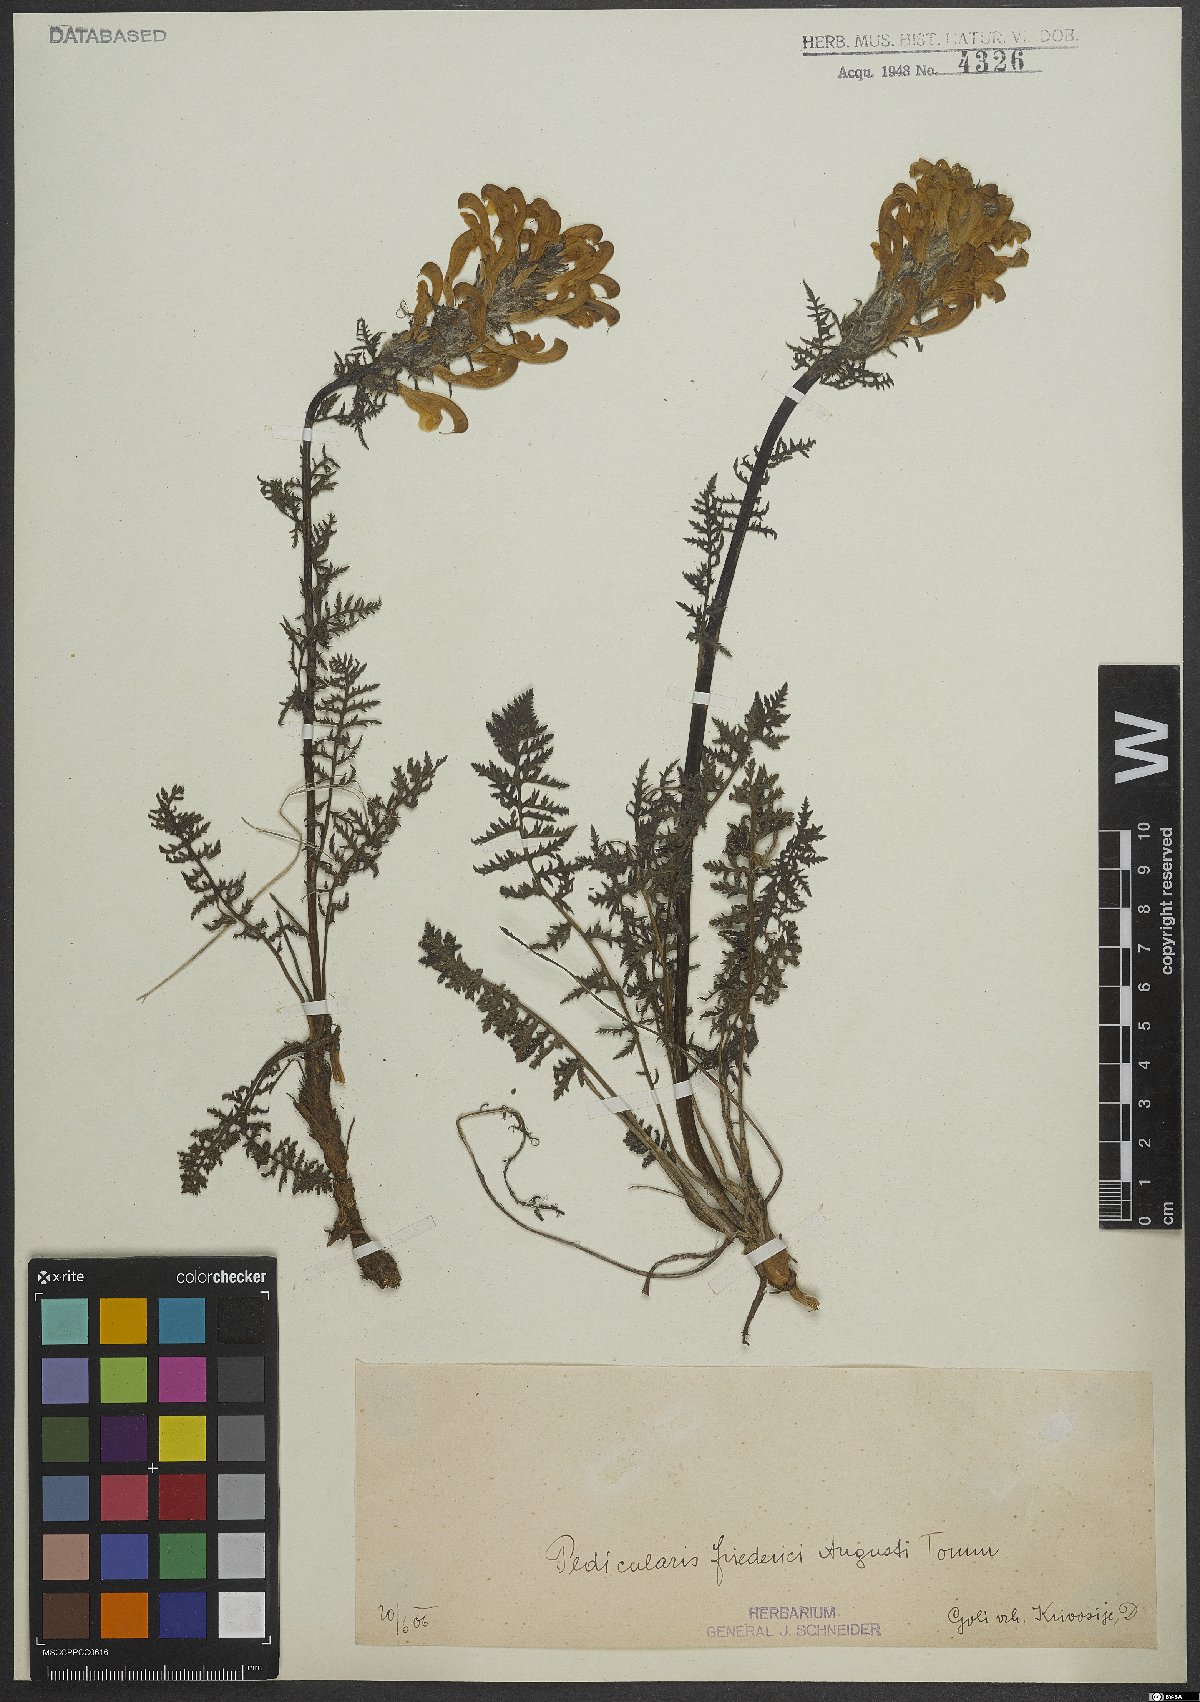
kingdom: Plantae
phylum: Tracheophyta
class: Magnoliopsida
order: Lamiales
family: Orobanchaceae
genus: Pedicularis
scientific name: Pedicularis friderici-augusti
